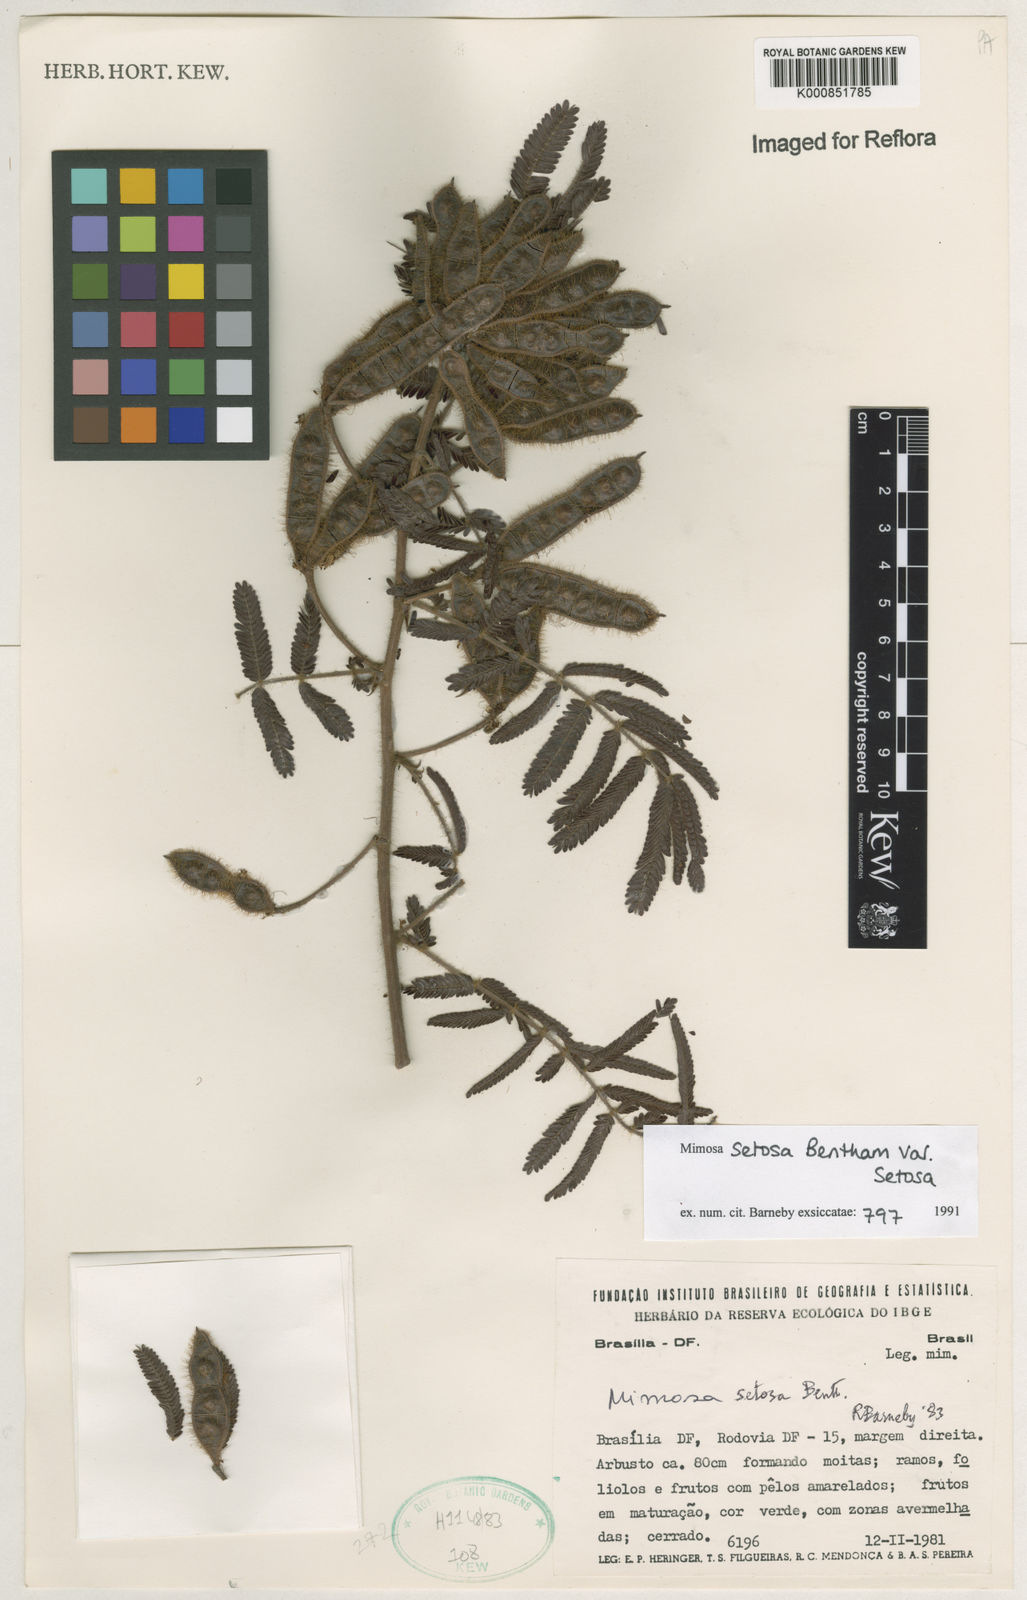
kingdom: Plantae
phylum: Tracheophyta
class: Magnoliopsida
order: Fabales
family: Fabaceae
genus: Mimosa
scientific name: Mimosa setosa
